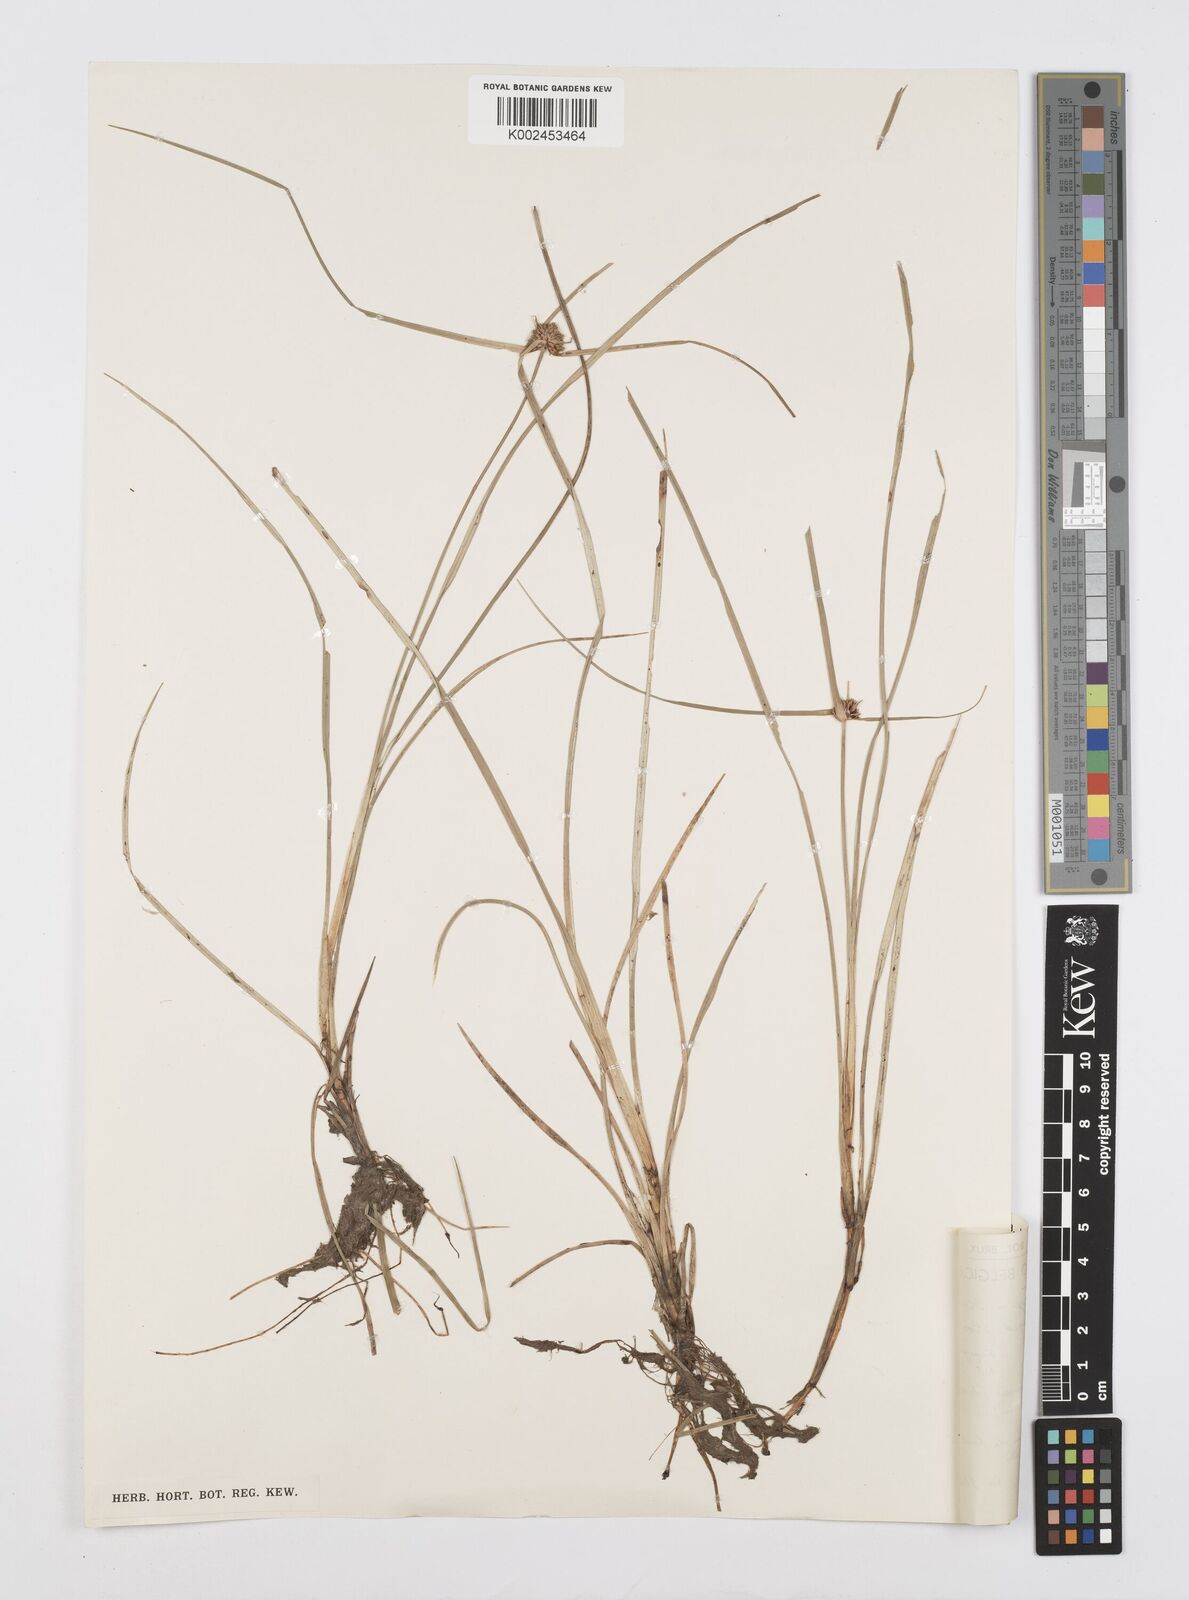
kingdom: Plantae
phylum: Tracheophyta
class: Liliopsida
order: Poales
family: Cyperaceae
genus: Cyperus
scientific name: Cyperus elegans
